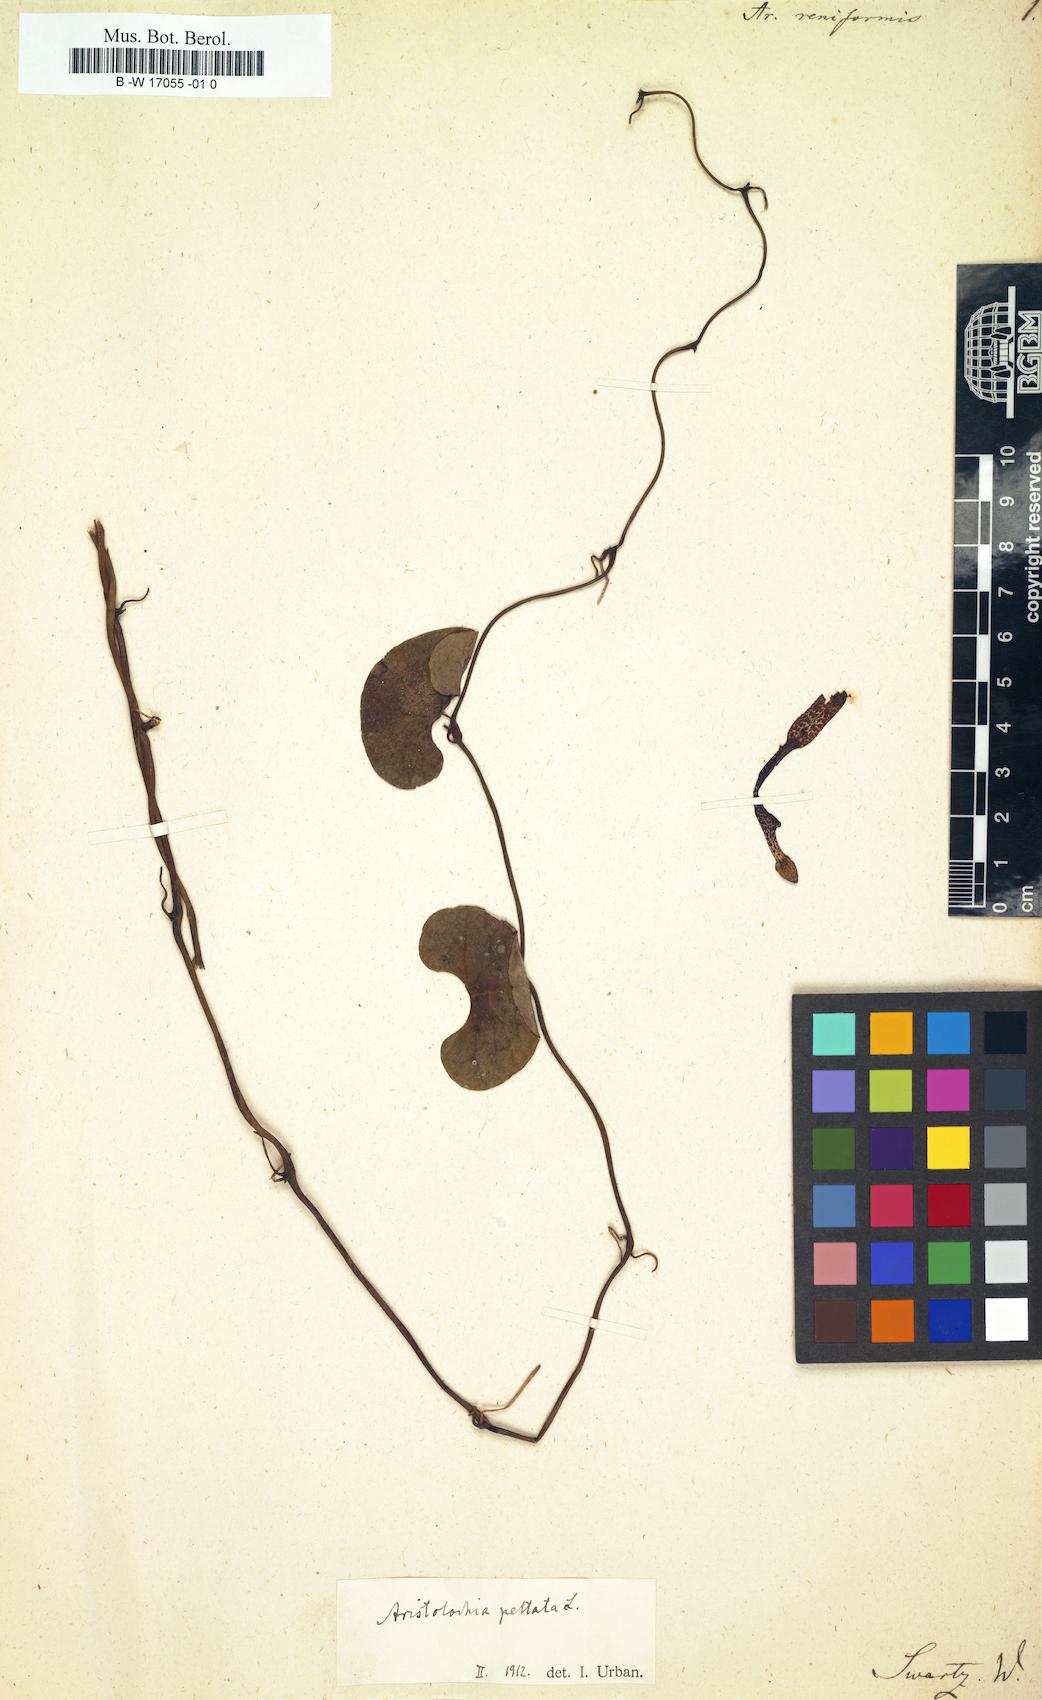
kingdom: Plantae
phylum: Tracheophyta
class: Magnoliopsida
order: Piperales
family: Aristolochiaceae
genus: Aristolochia
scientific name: Aristolochia peltata
